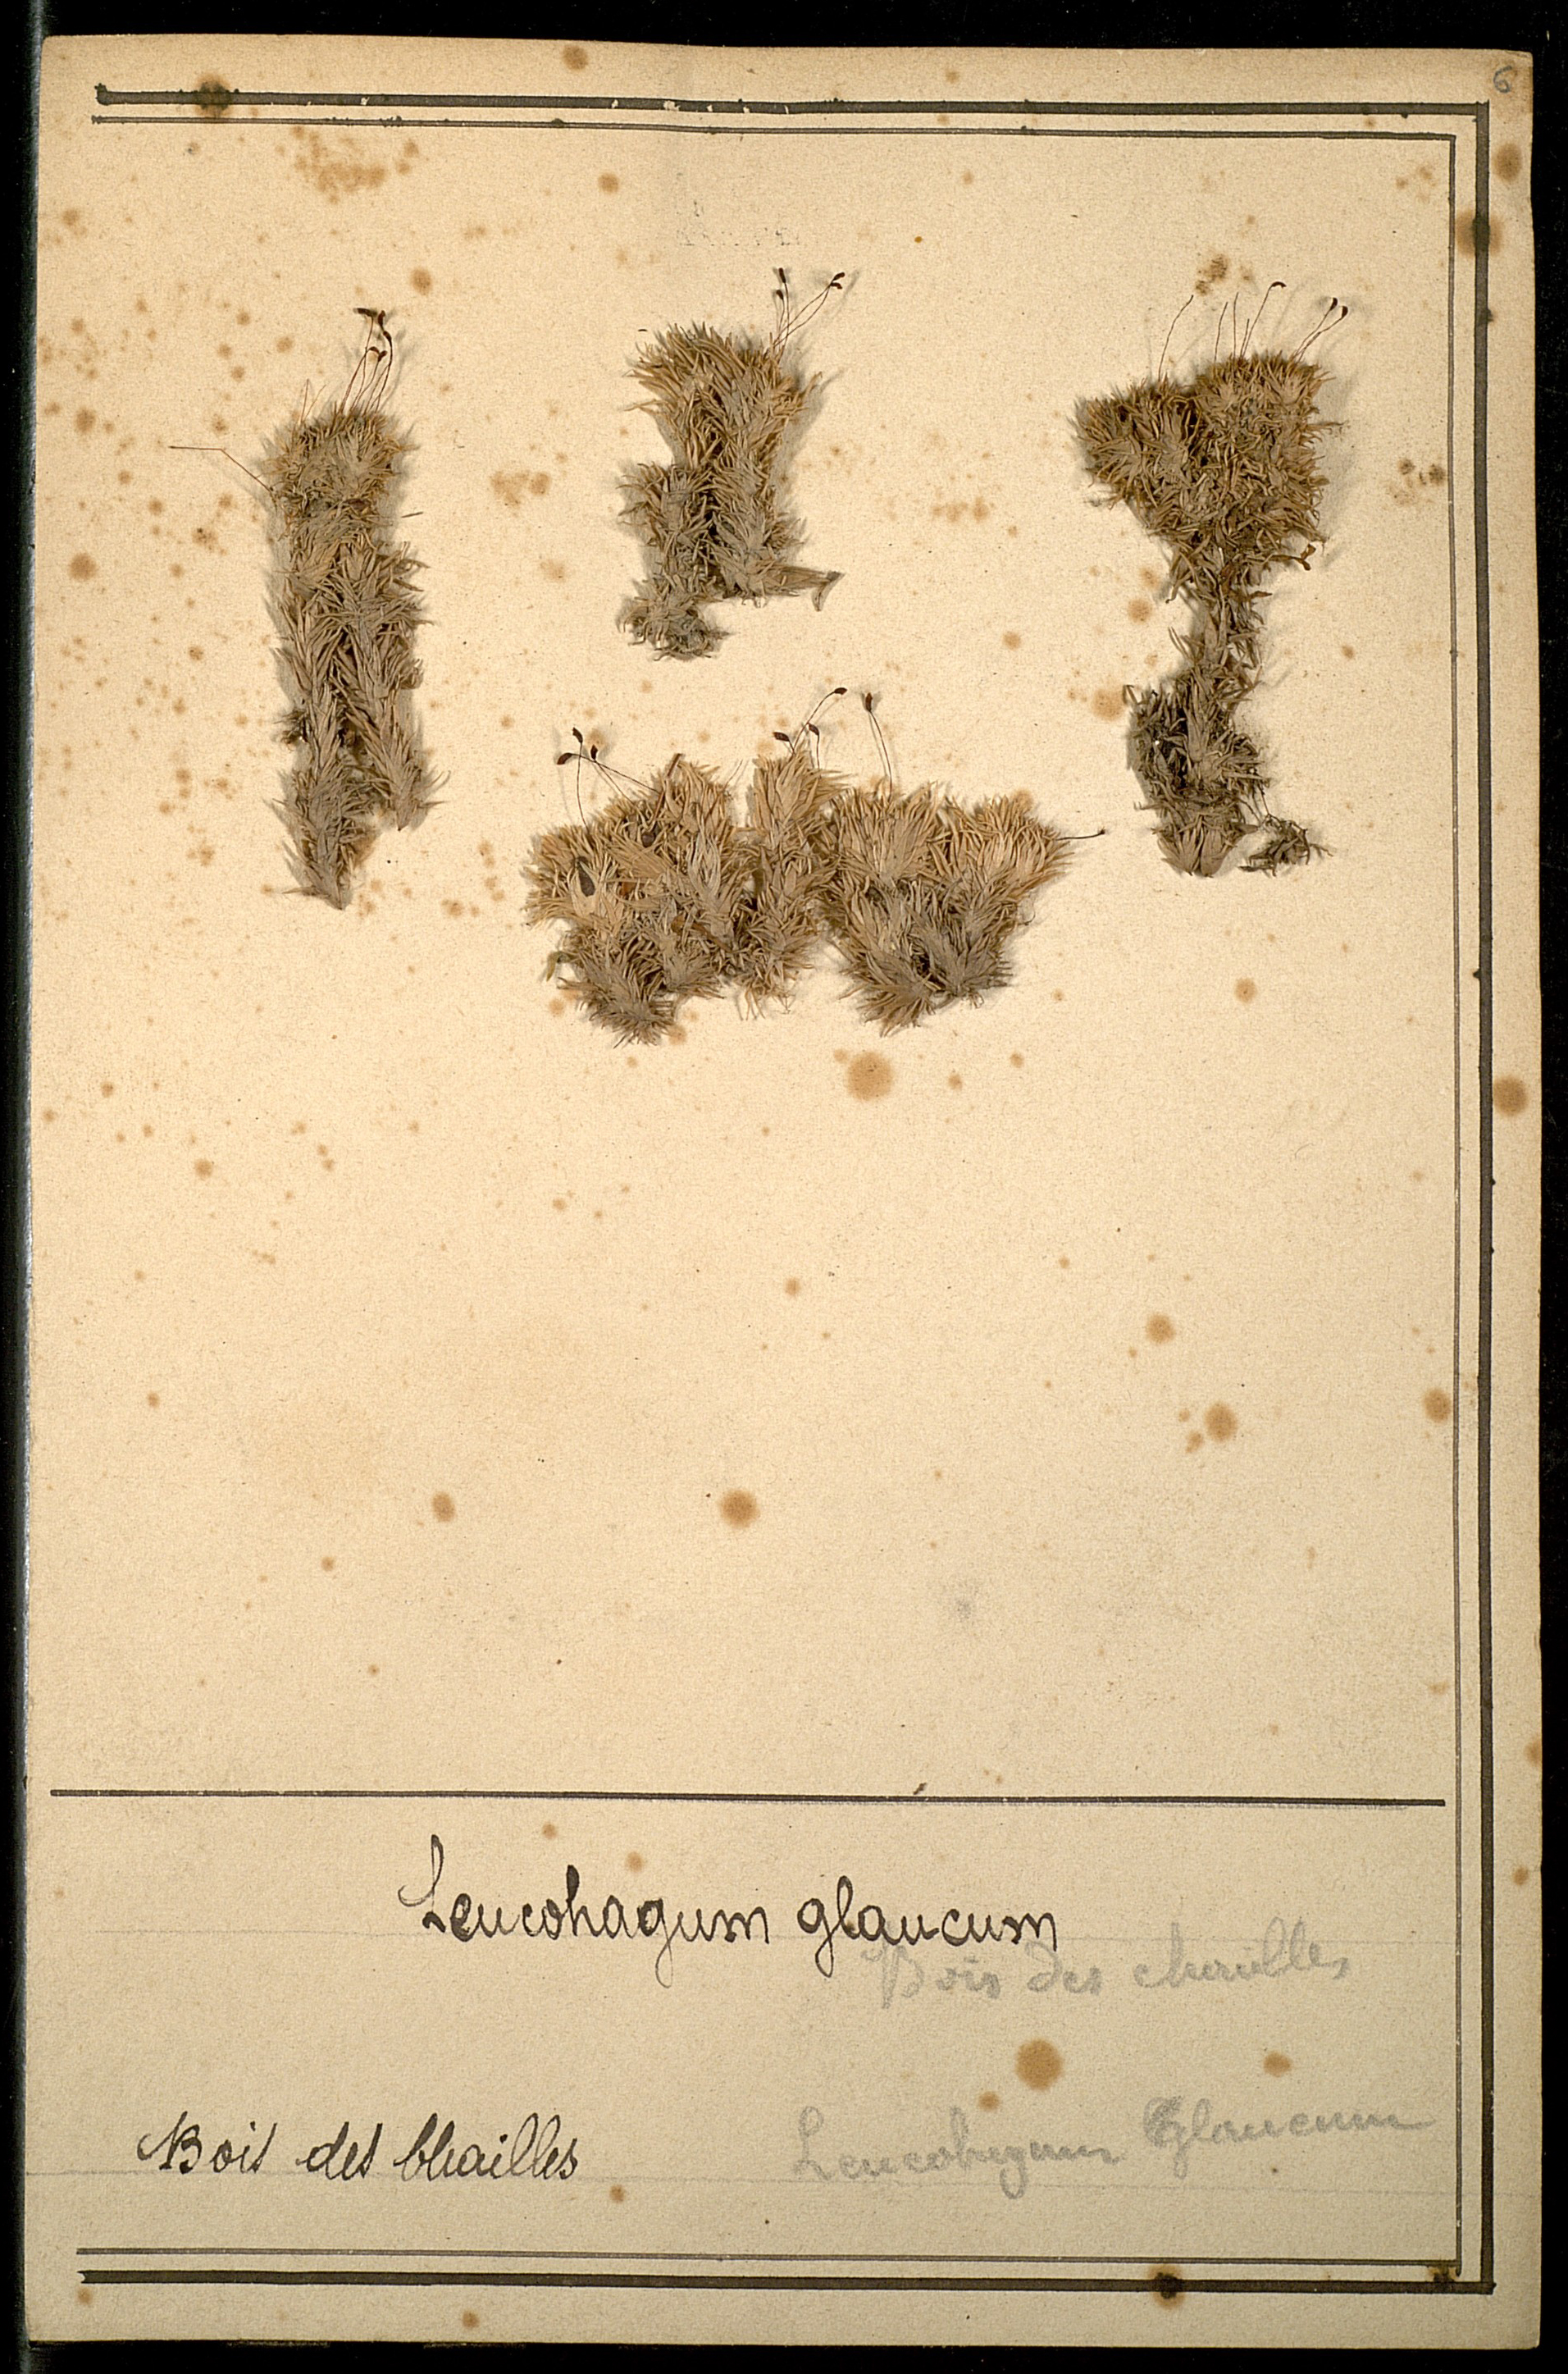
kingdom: Plantae
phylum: Bryophyta
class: Bryopsida
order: Dicranales
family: Leucobryaceae
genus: Leucobryum
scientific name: Leucobryum glaucum
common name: Large white-moss
